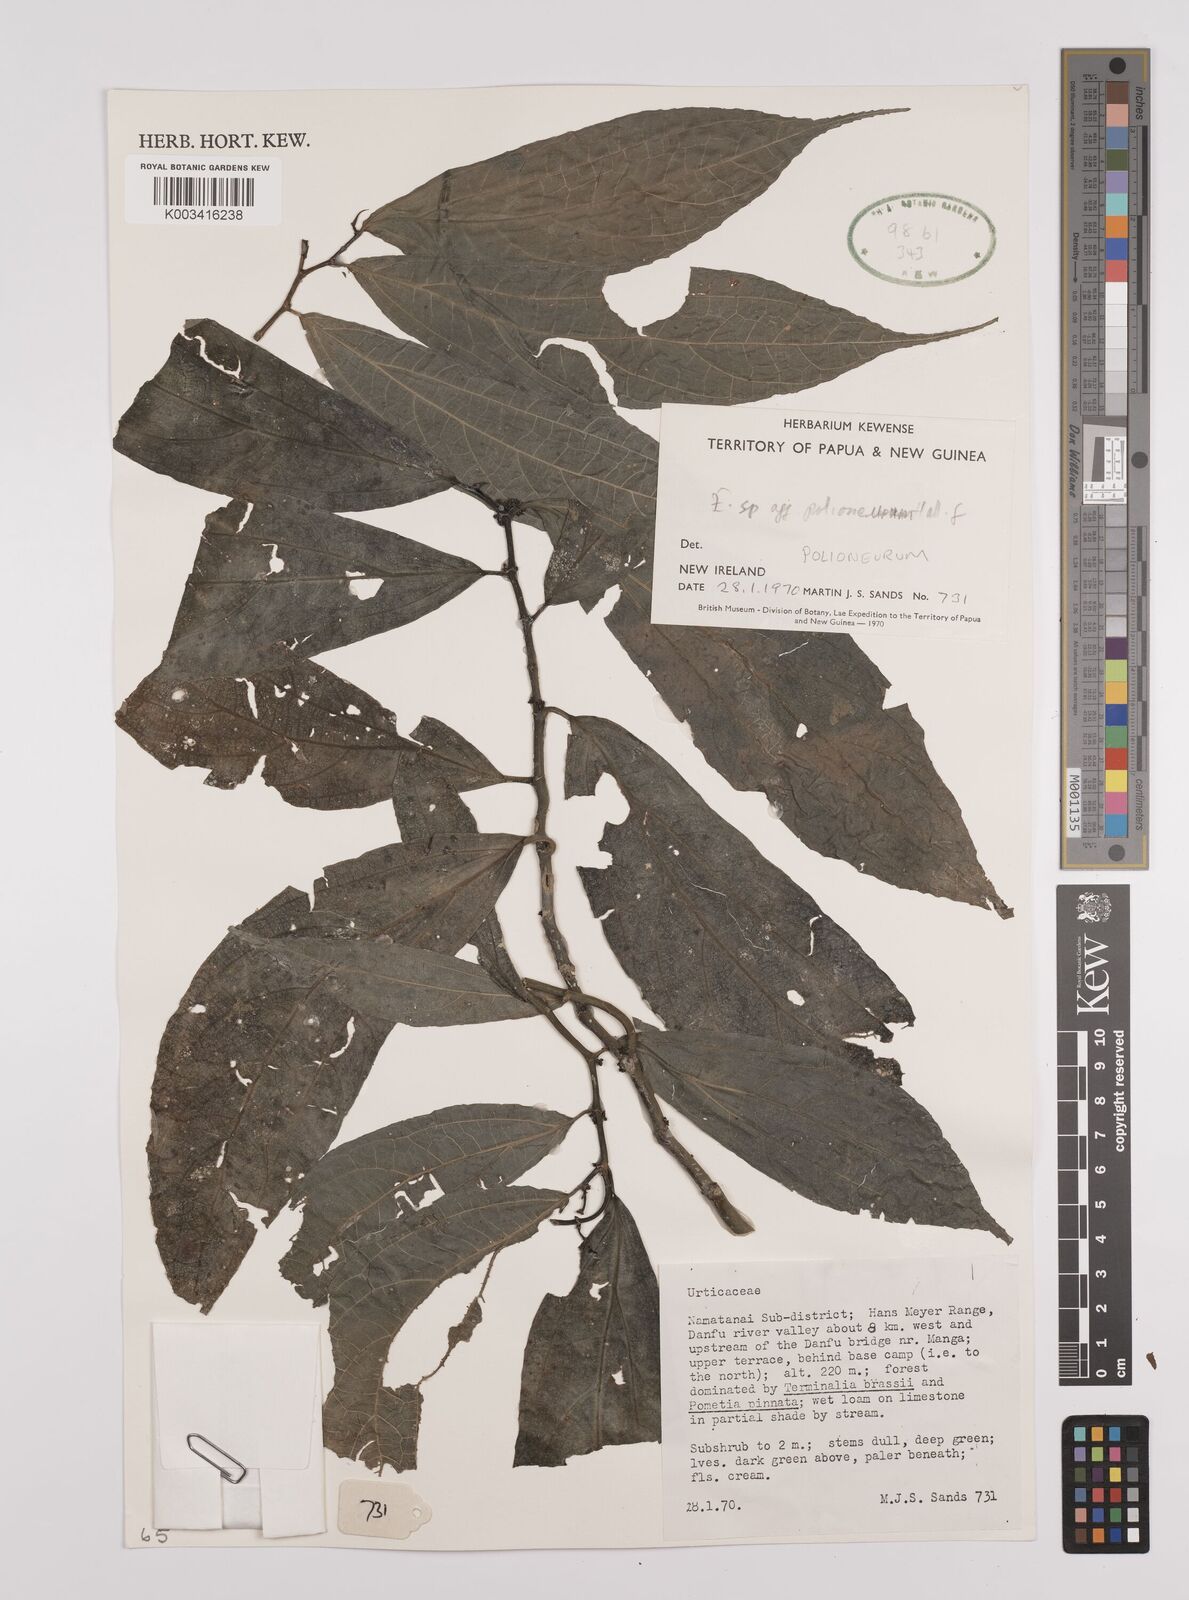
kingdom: Plantae
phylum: Tracheophyta
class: Magnoliopsida
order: Rosales
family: Urticaceae
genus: Elatostematoides
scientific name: Elatostematoides polioneurum
